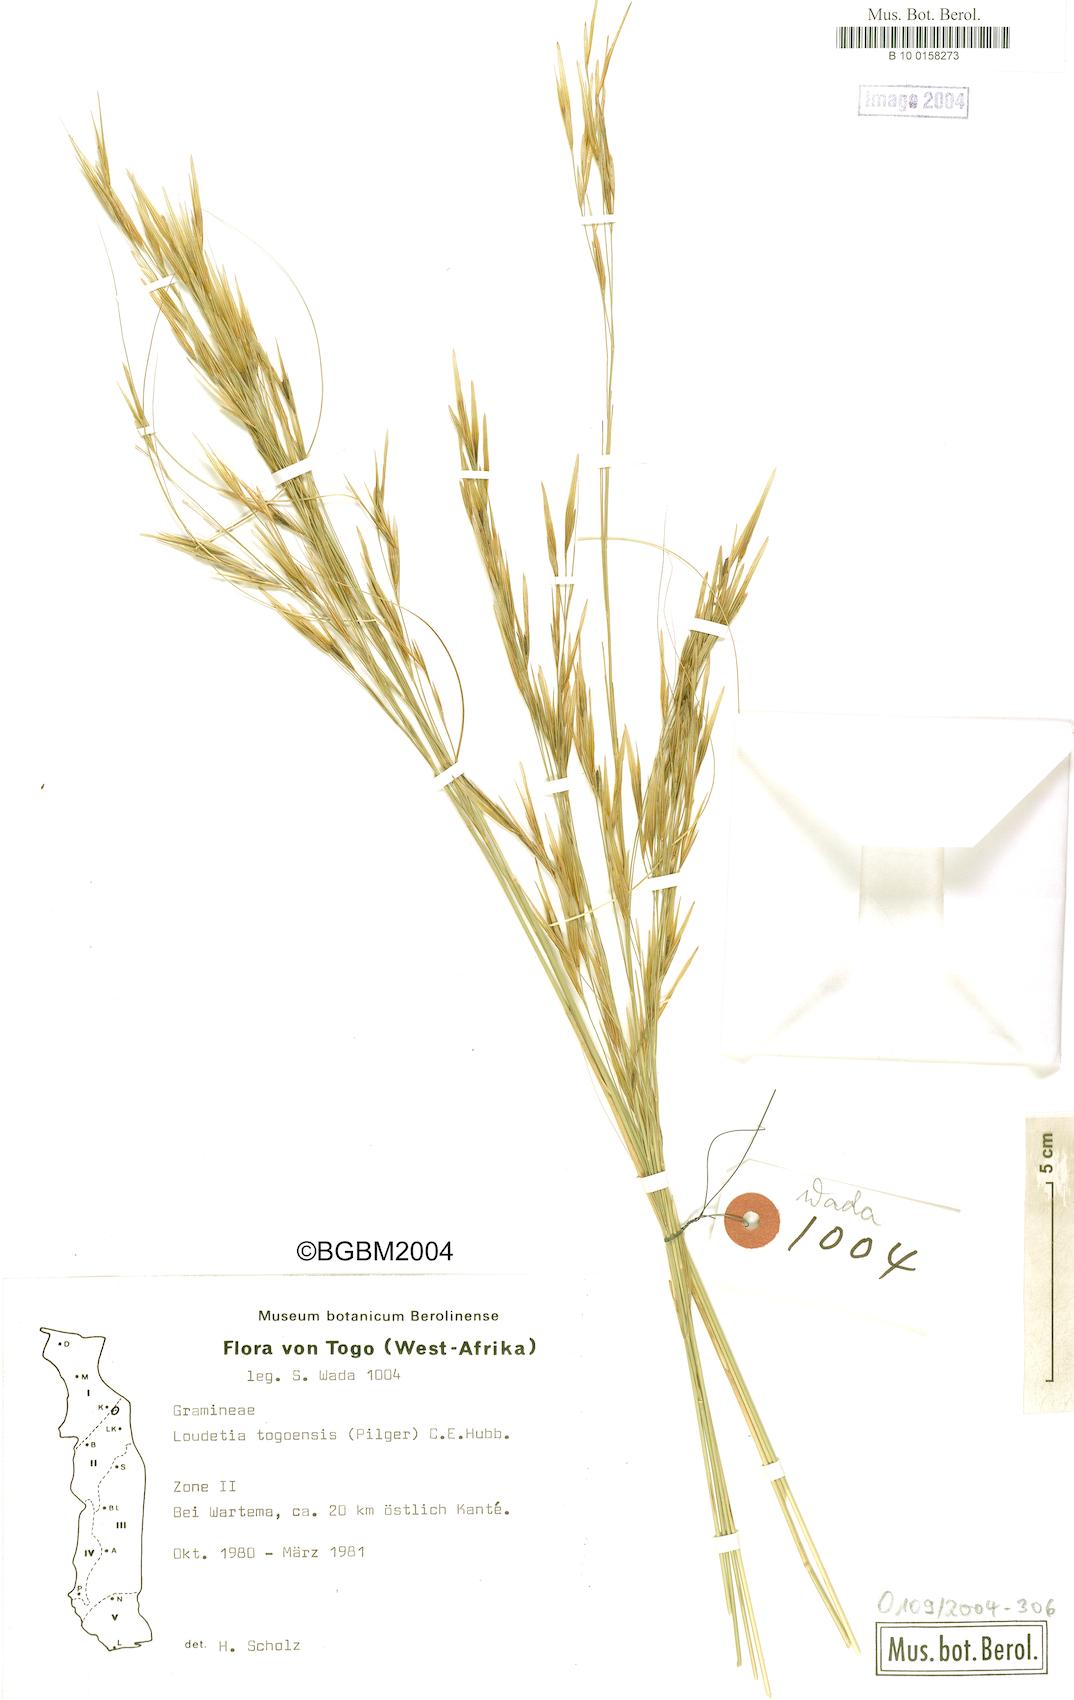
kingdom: Plantae
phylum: Tracheophyta
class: Liliopsida
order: Poales
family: Poaceae
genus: Loudetia
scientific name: Loudetia togoensis
